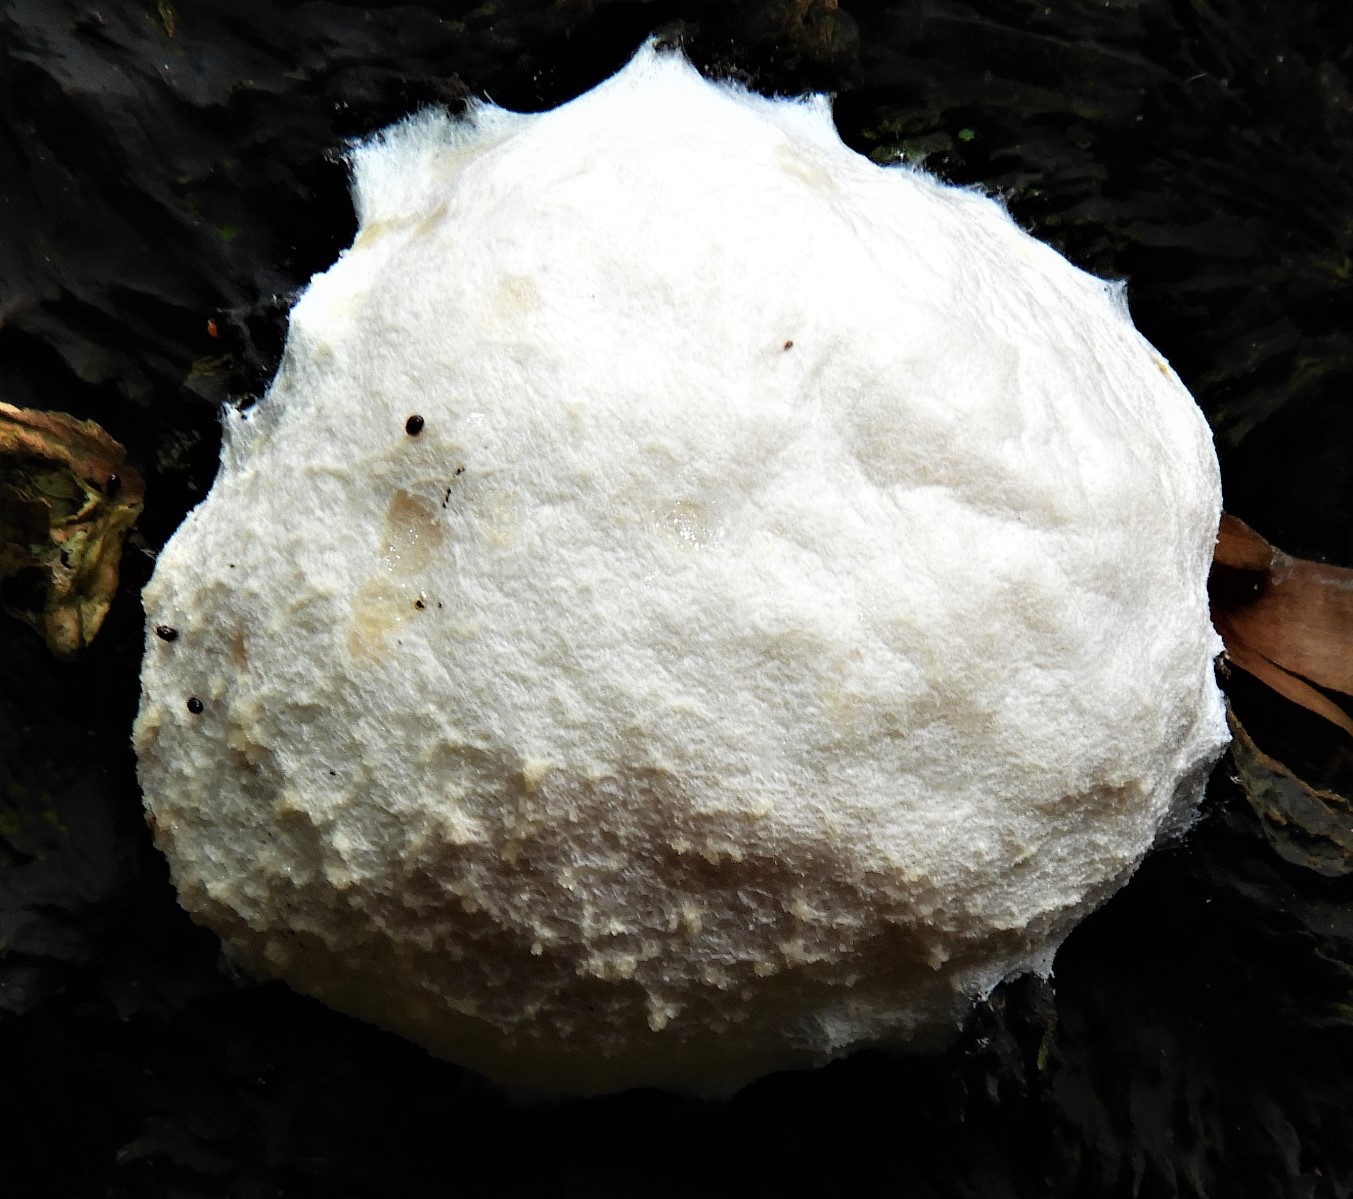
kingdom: Protozoa
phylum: Mycetozoa
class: Myxomycetes
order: Cribrariales
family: Tubiferaceae
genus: Reticularia
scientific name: Reticularia lycoperdon
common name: skinnende støvpude
